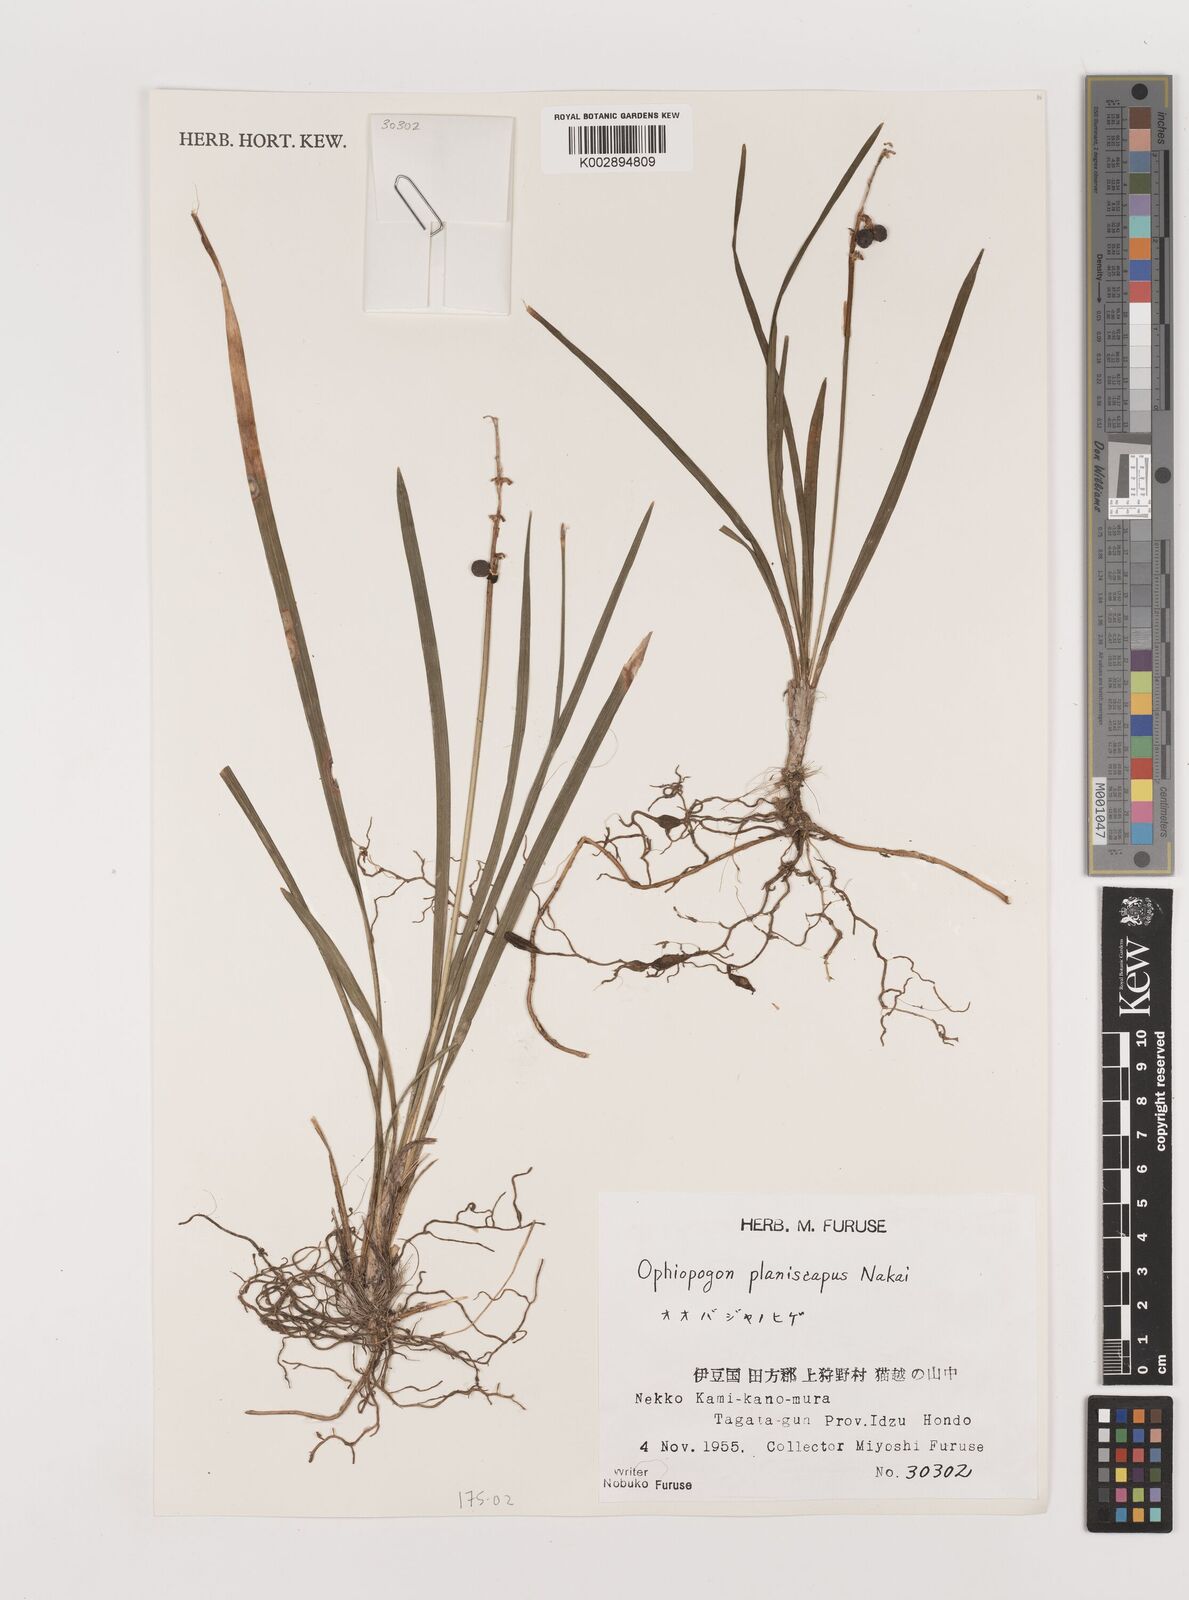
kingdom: Plantae
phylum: Tracheophyta
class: Liliopsida
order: Asparagales
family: Asparagaceae
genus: Ophiopogon
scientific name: Ophiopogon planiscapus
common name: Black mondo
